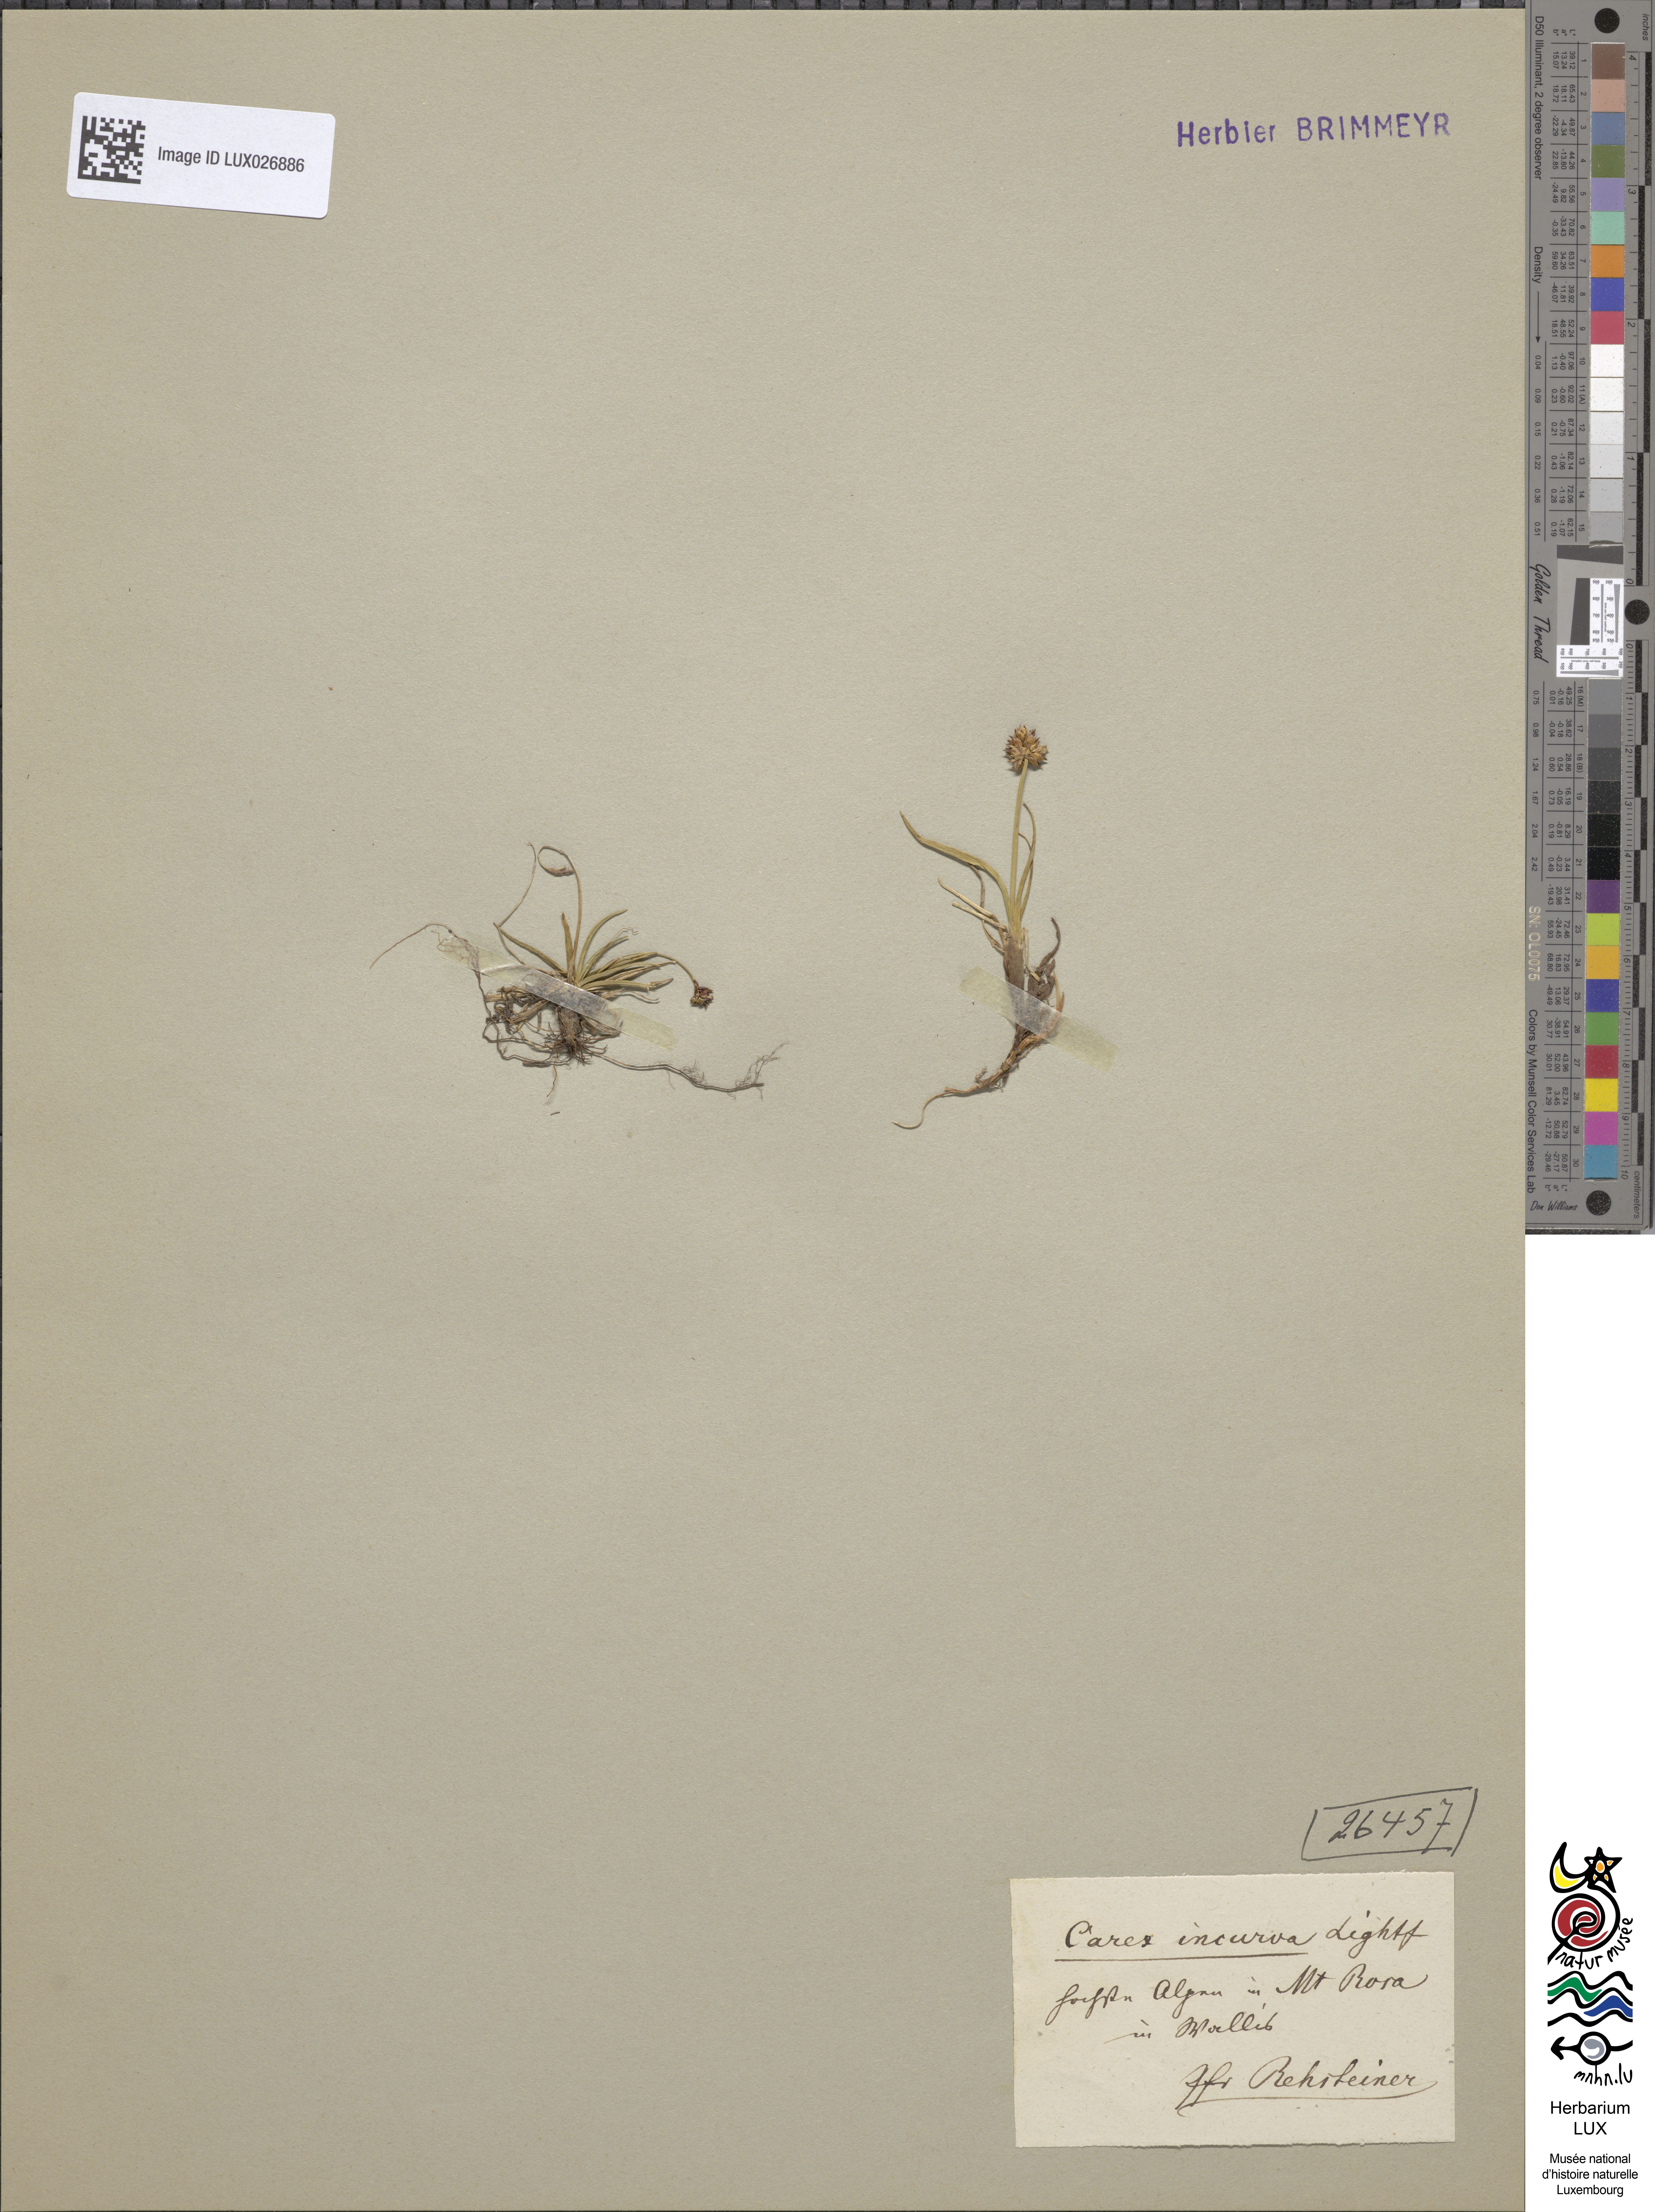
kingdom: Plantae
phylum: Tracheophyta
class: Liliopsida
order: Poales
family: Cyperaceae
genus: Carex
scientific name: Carex maritima
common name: Curved sedge
